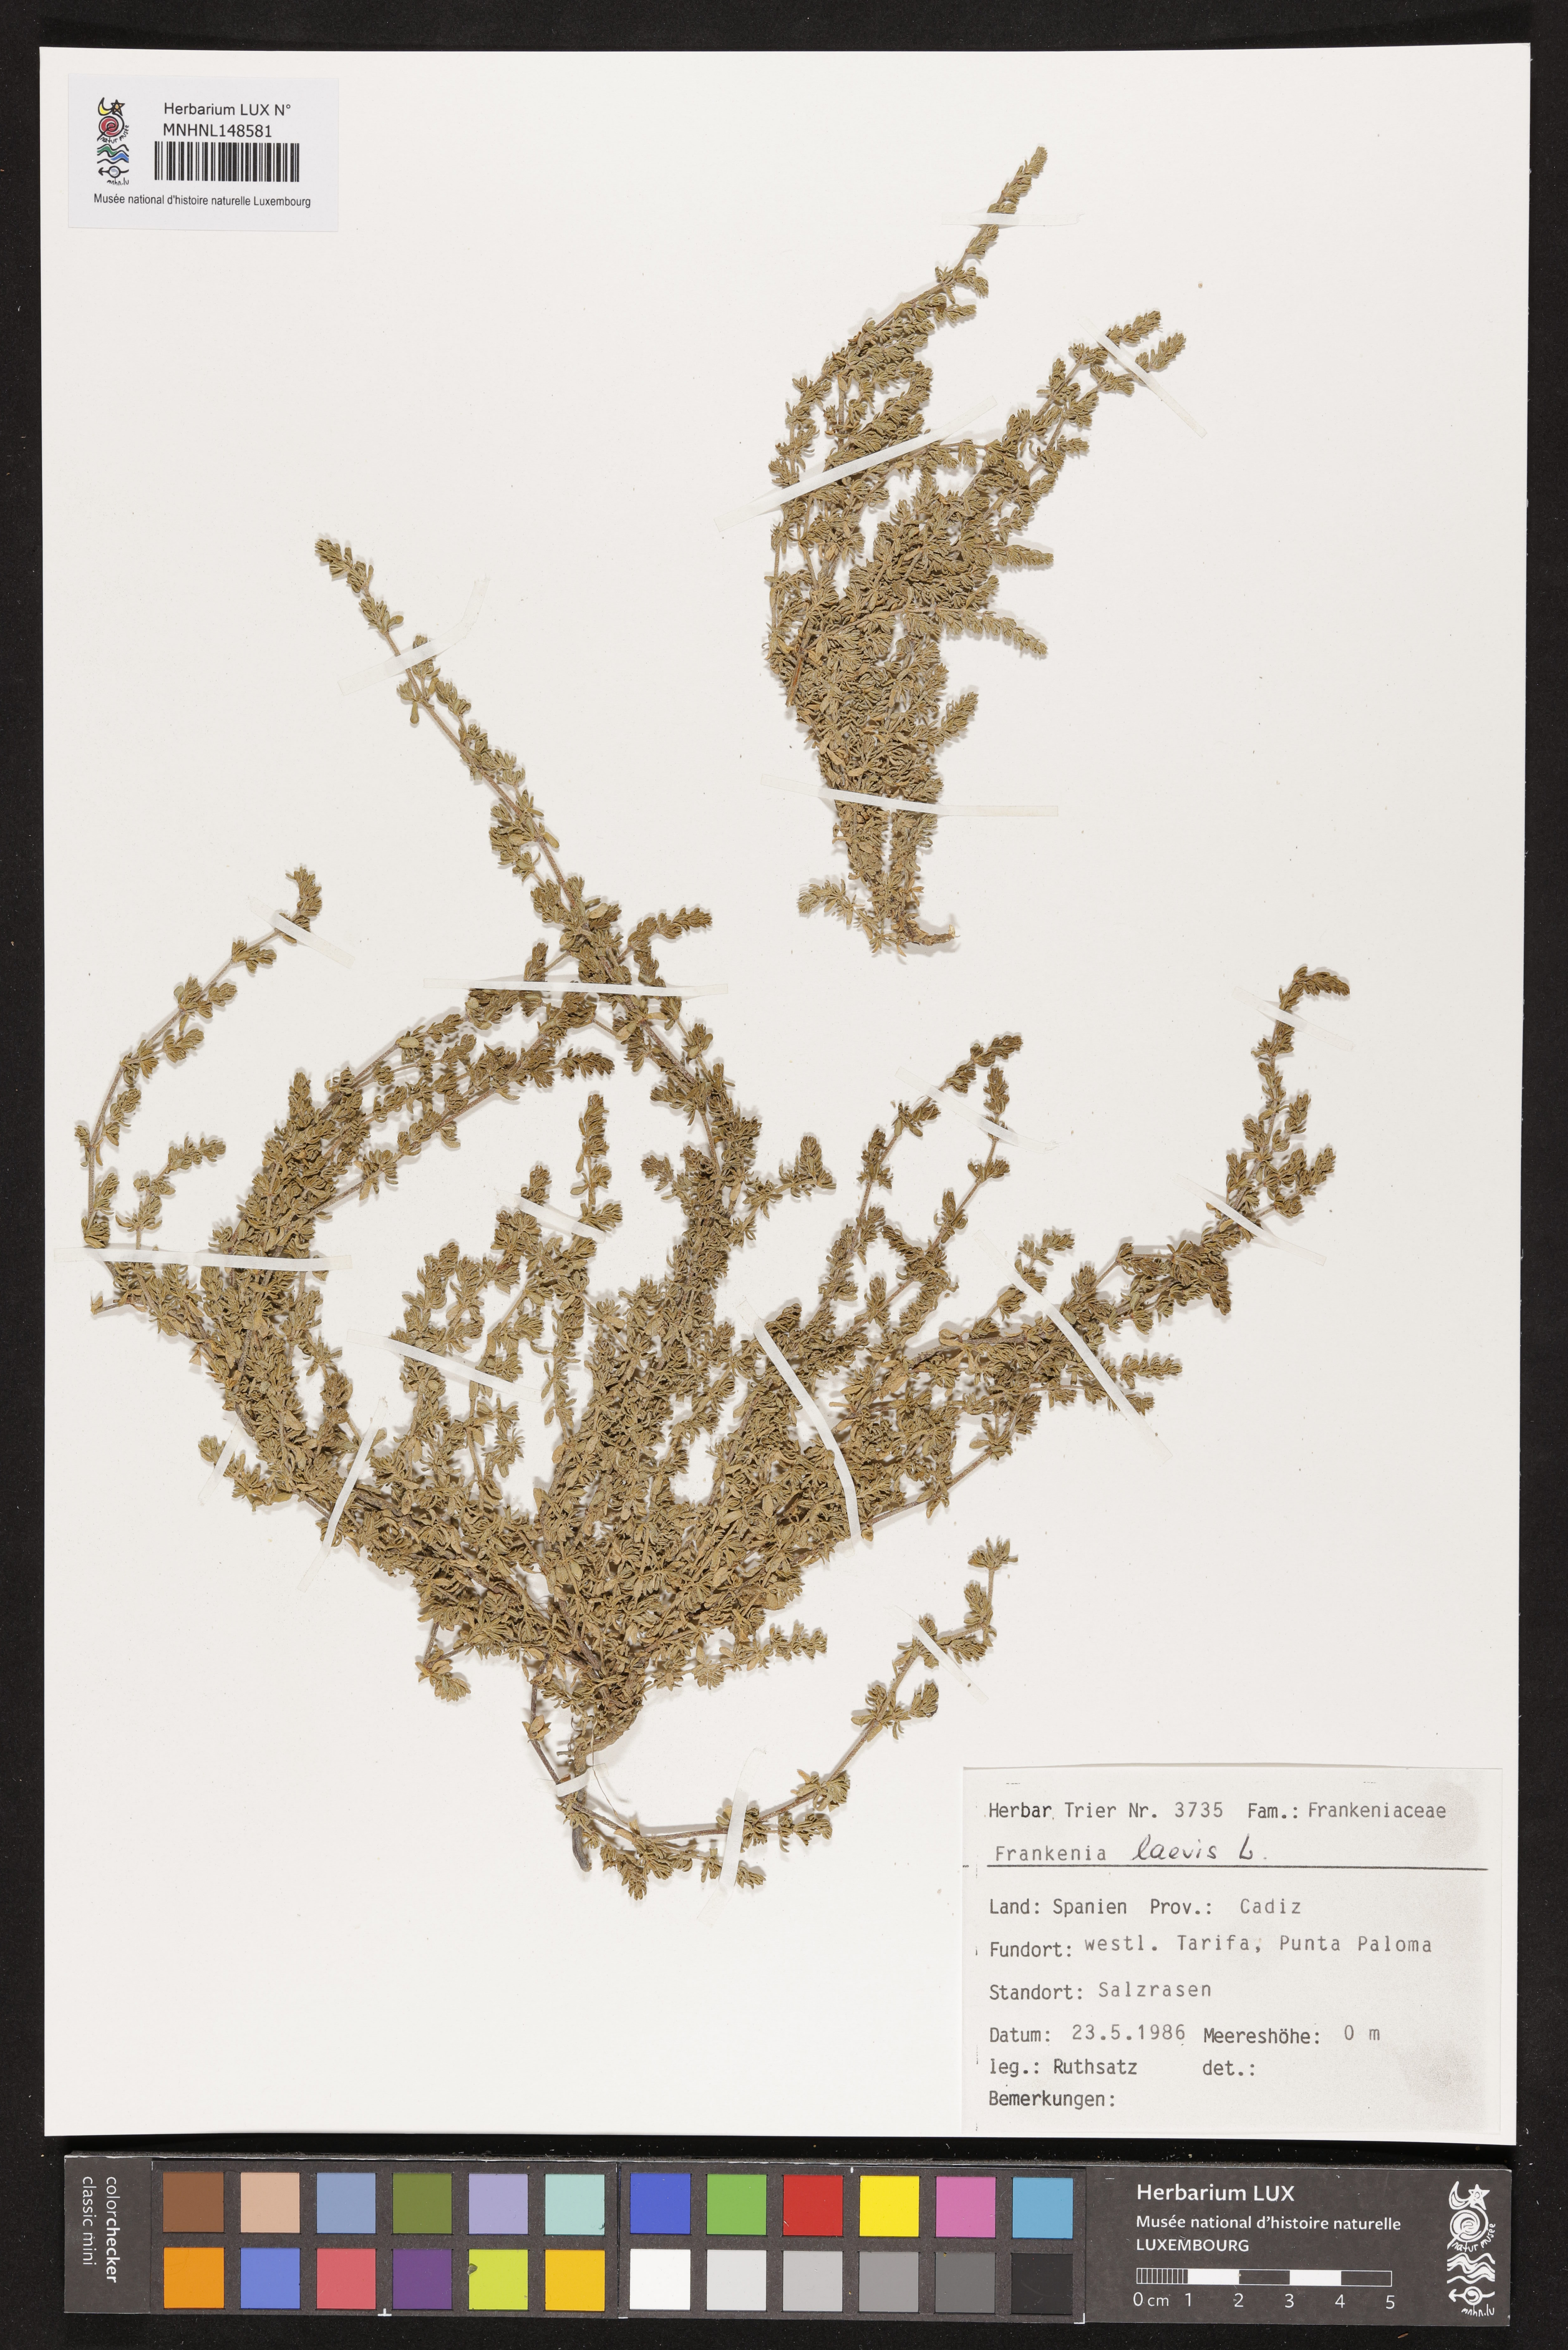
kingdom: Plantae
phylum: Tracheophyta
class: Magnoliopsida
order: Caryophyllales
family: Frankeniaceae
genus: Frankenia
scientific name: Frankenia laevis
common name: Sea-heath
